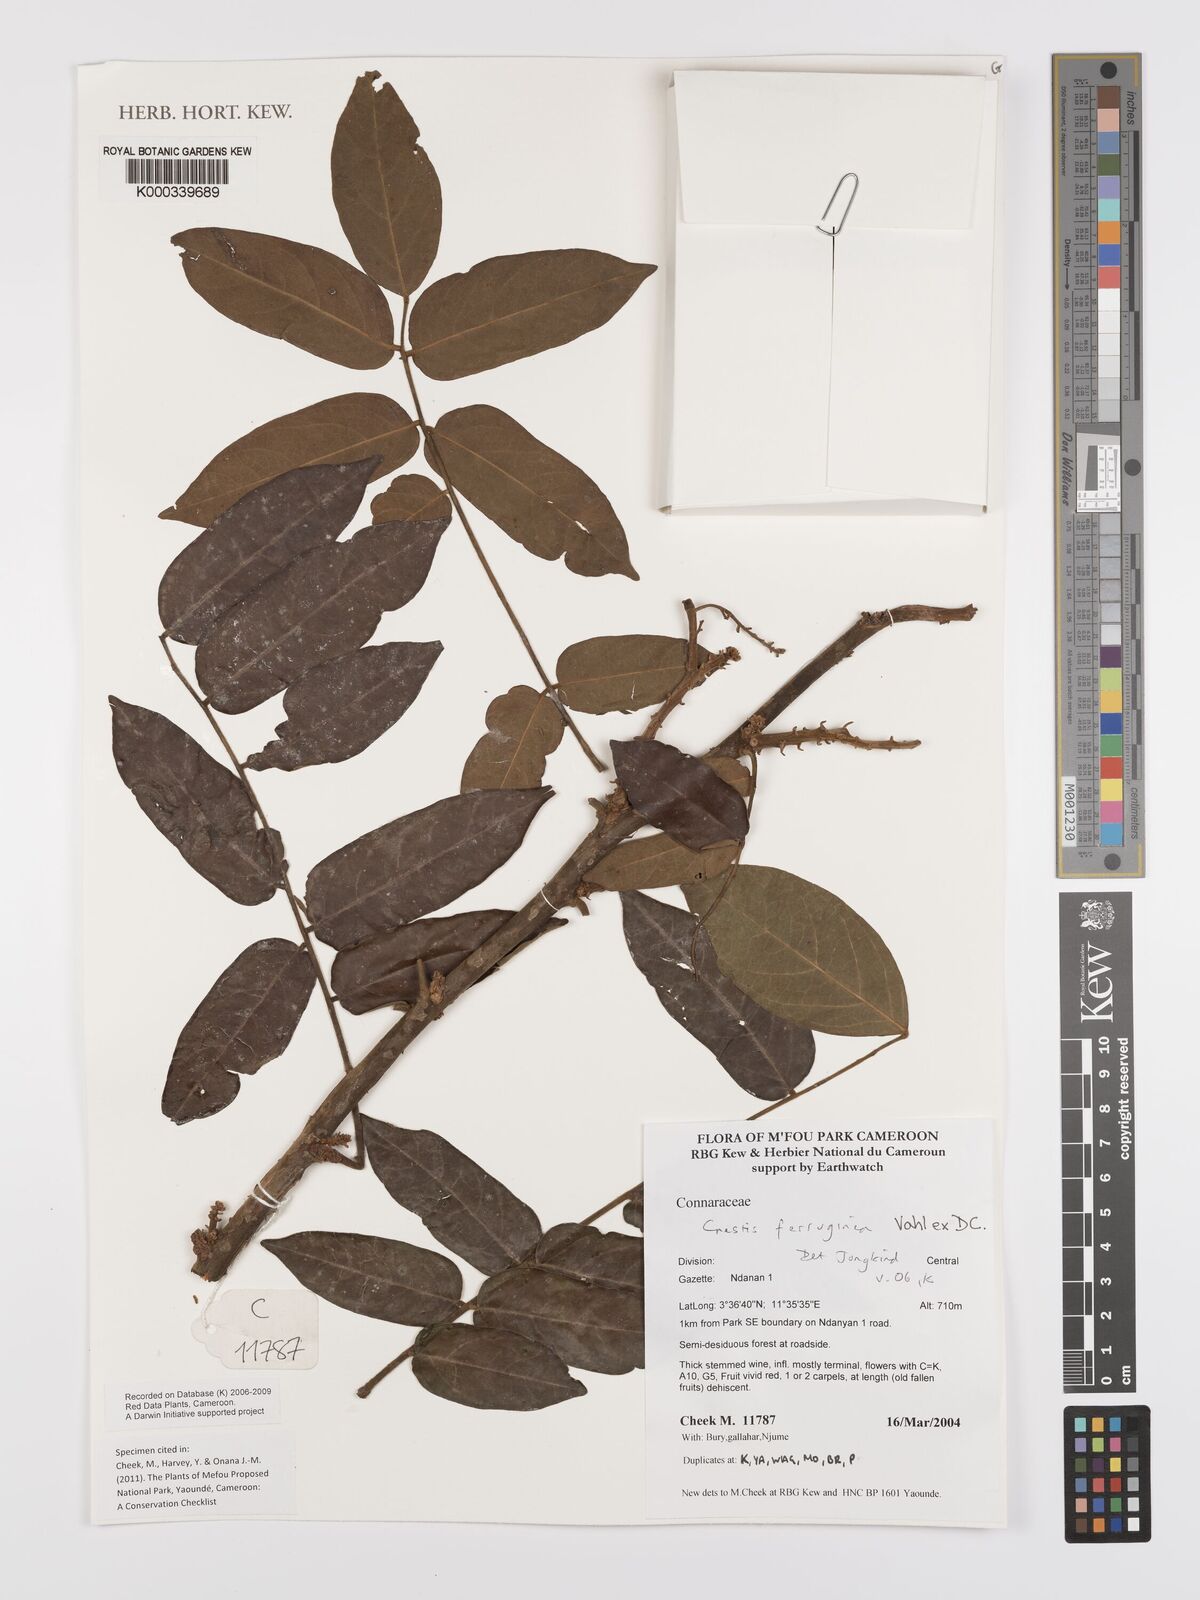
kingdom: Plantae
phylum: Tracheophyta
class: Magnoliopsida
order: Oxalidales
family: Connaraceae
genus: Cnestis
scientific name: Cnestis ferruginea
